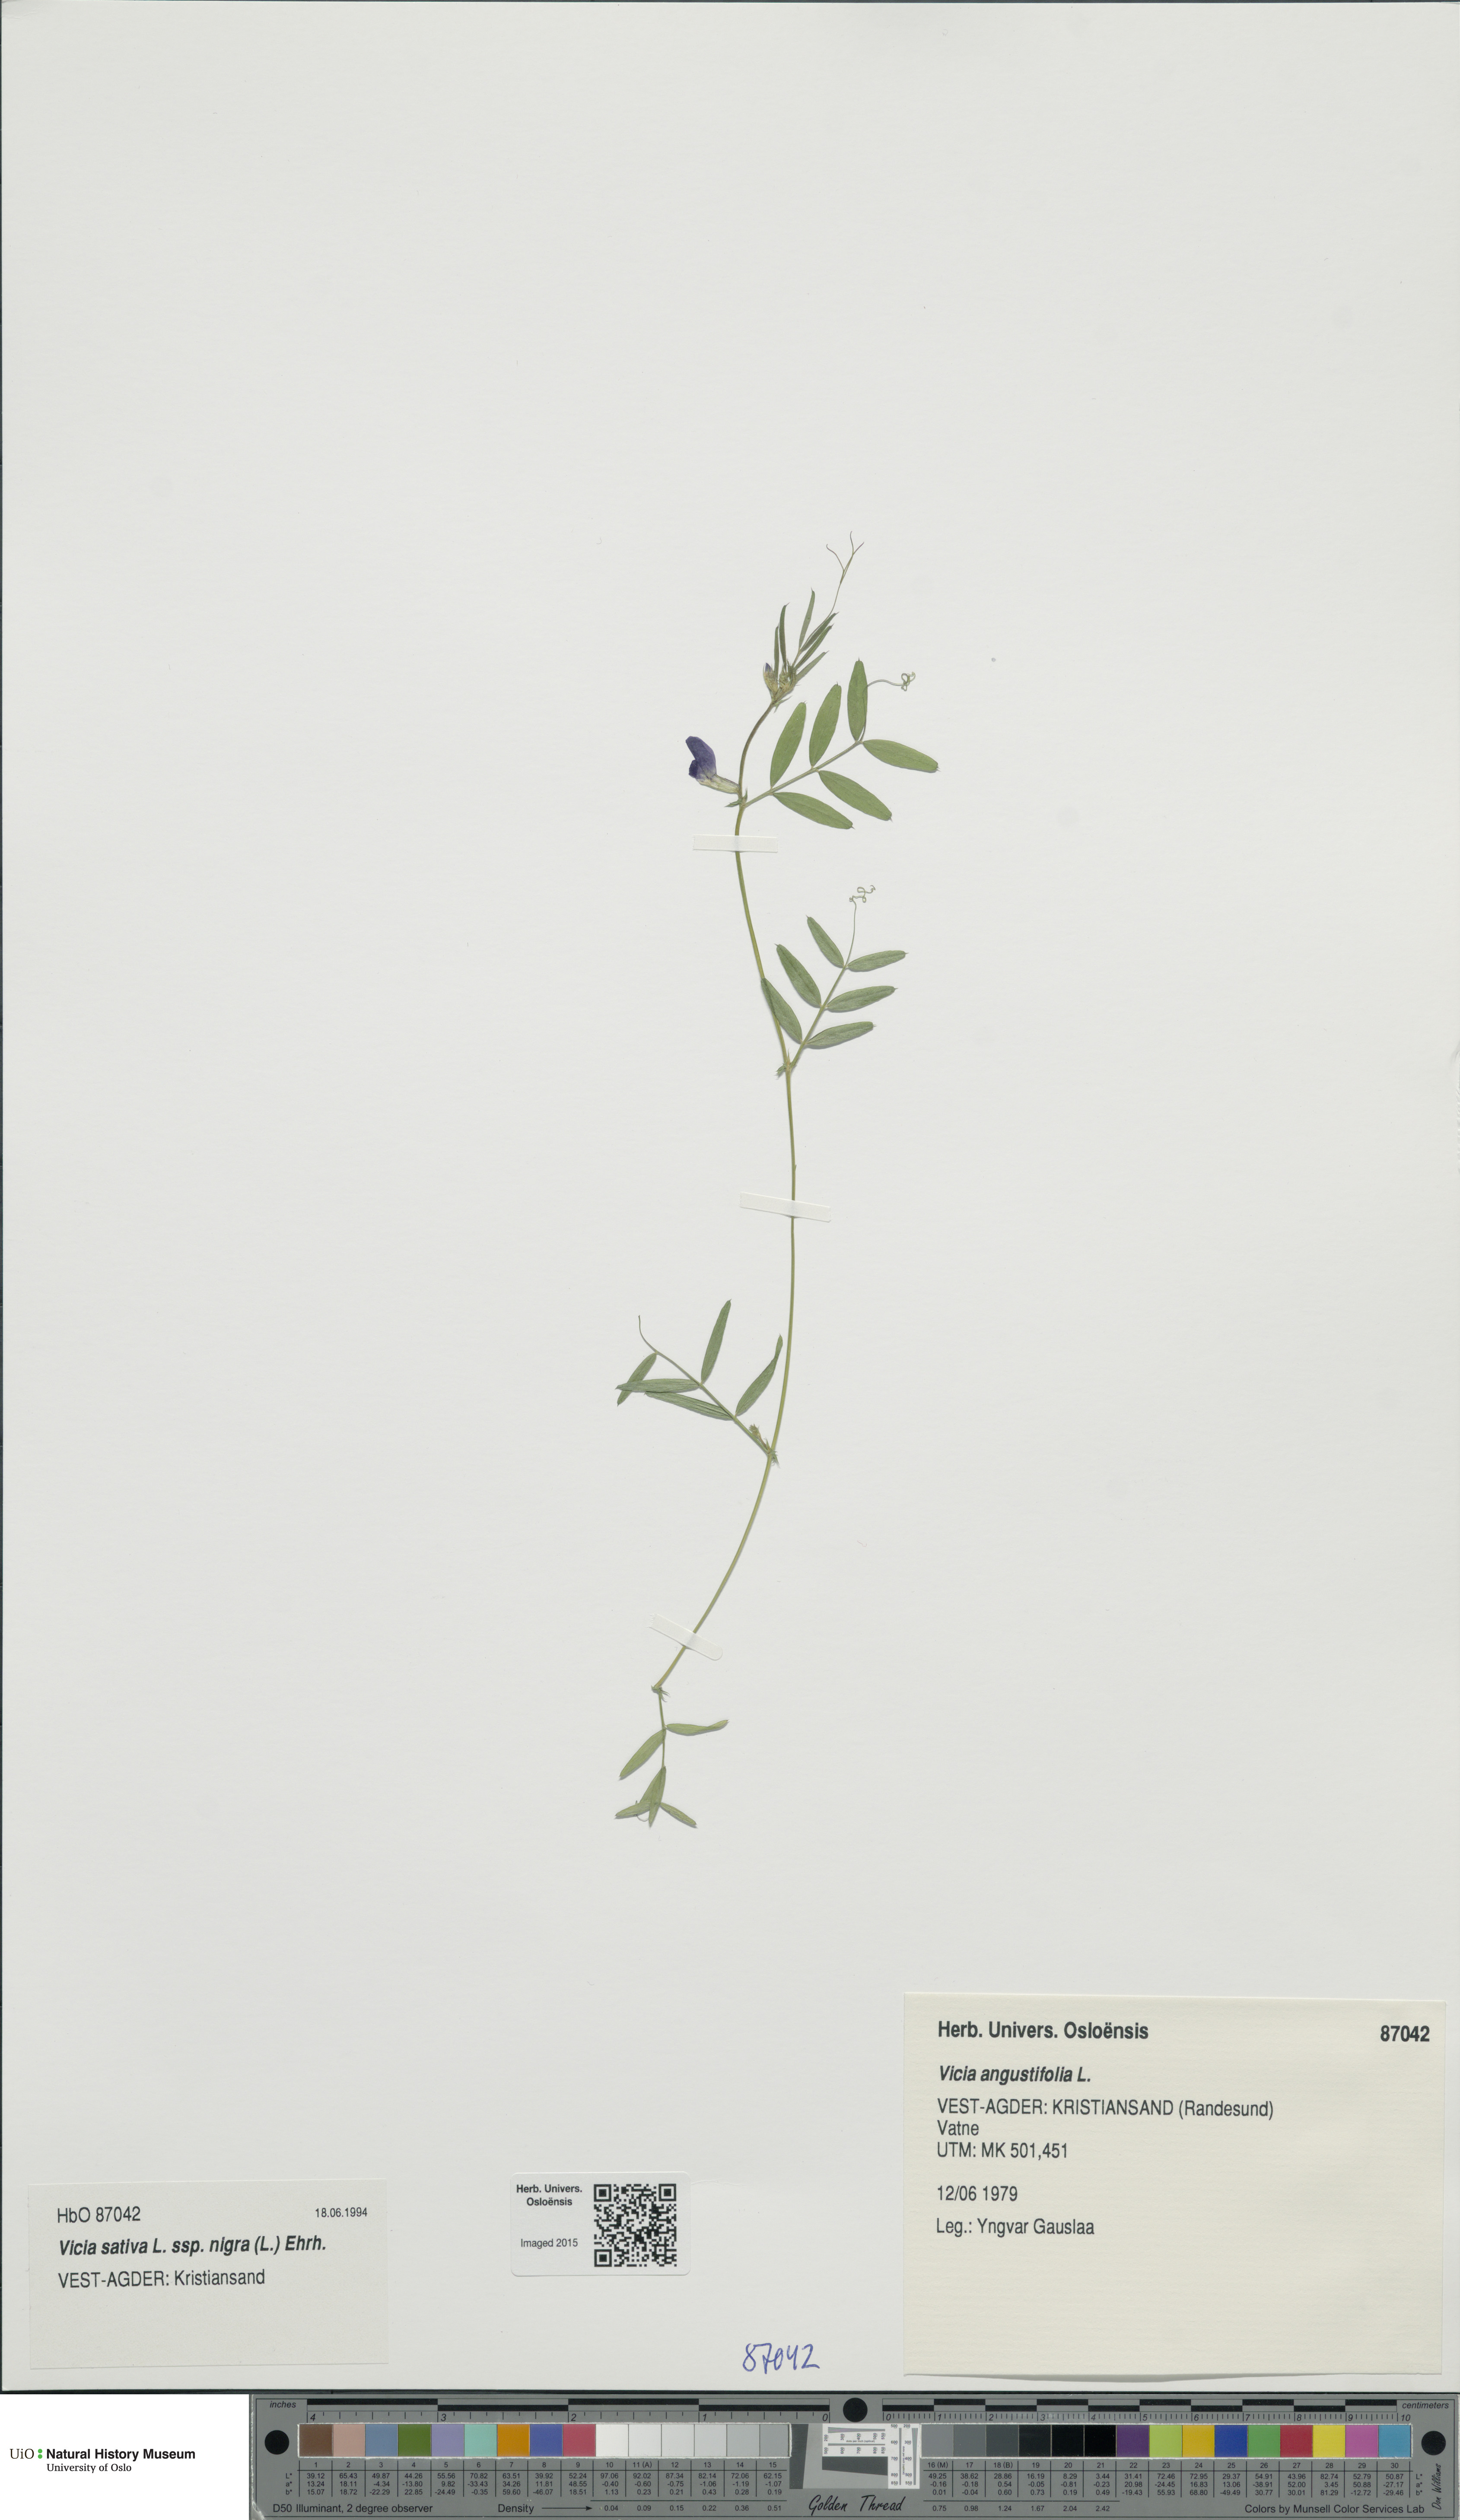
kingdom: Plantae
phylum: Tracheophyta
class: Magnoliopsida
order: Fabales
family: Fabaceae
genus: Vicia
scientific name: Vicia sativa
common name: Garden vetch
